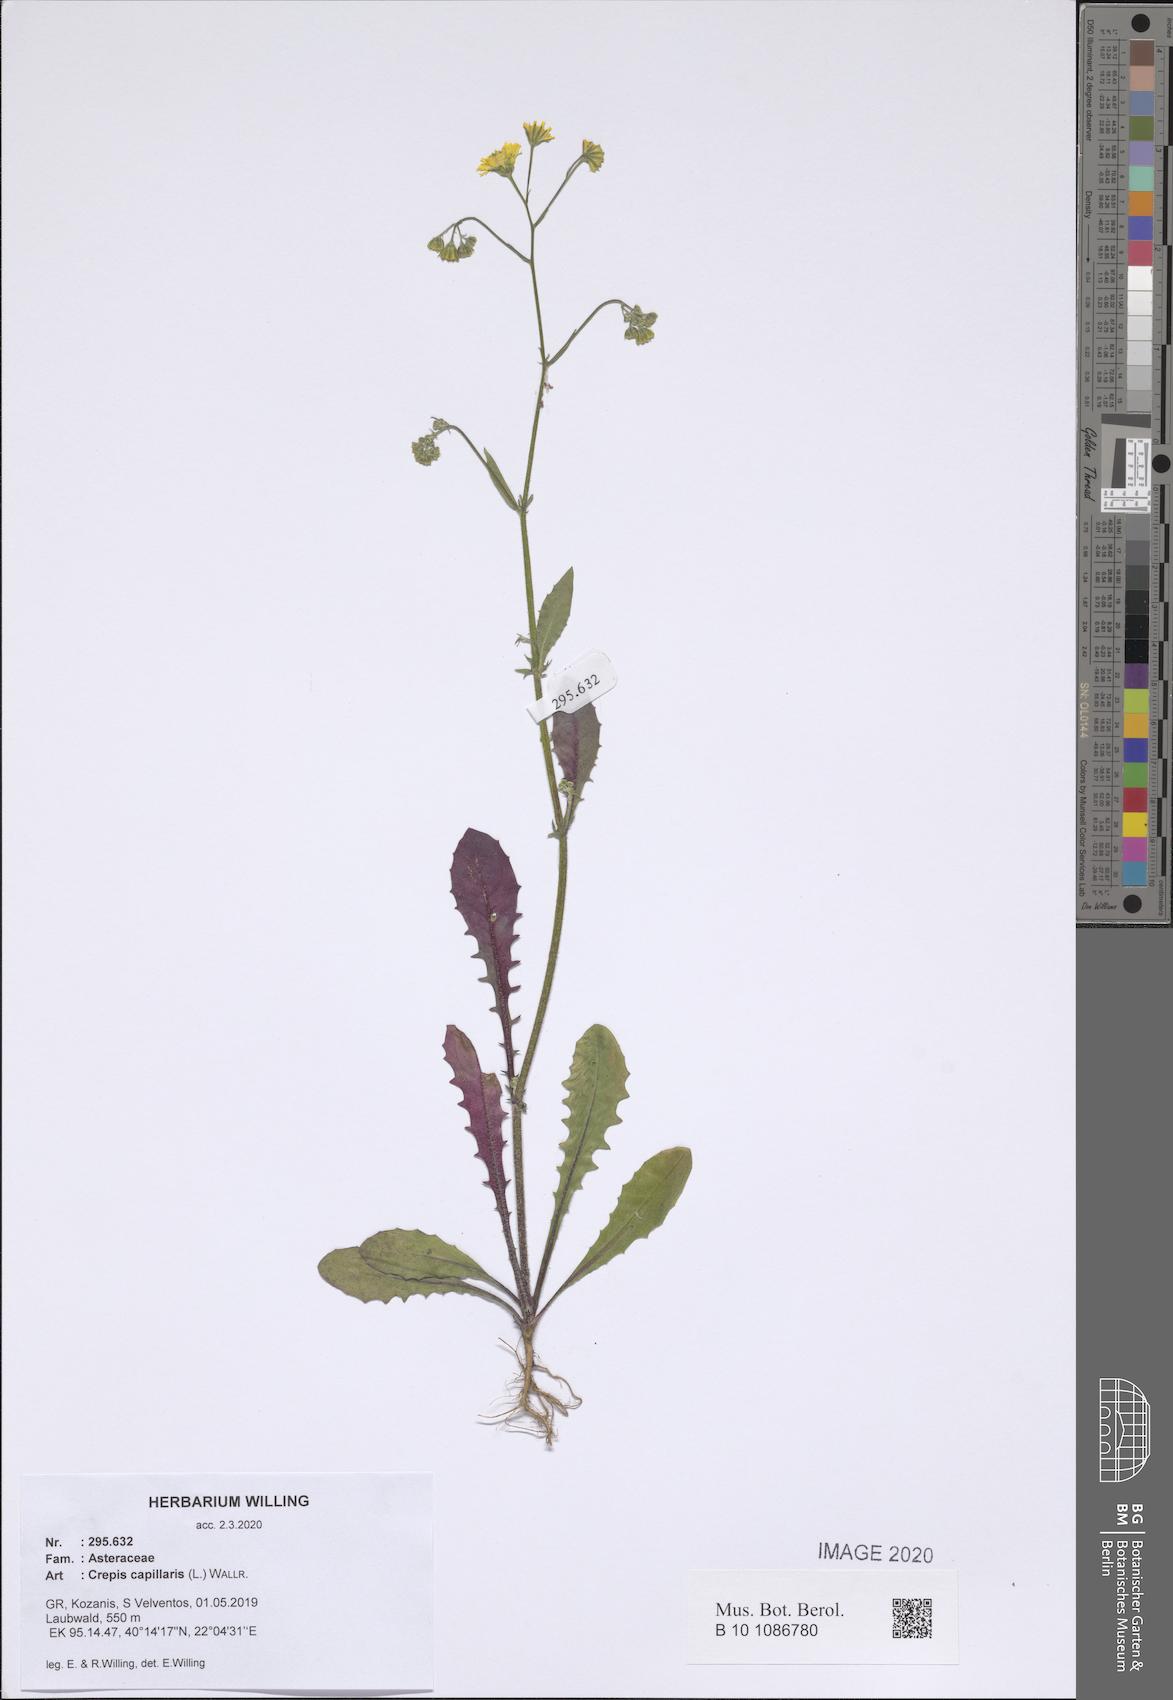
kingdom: Plantae
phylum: Tracheophyta
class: Magnoliopsida
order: Asterales
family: Asteraceae
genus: Crepis
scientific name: Crepis capillaris
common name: Smooth hawksbeard
